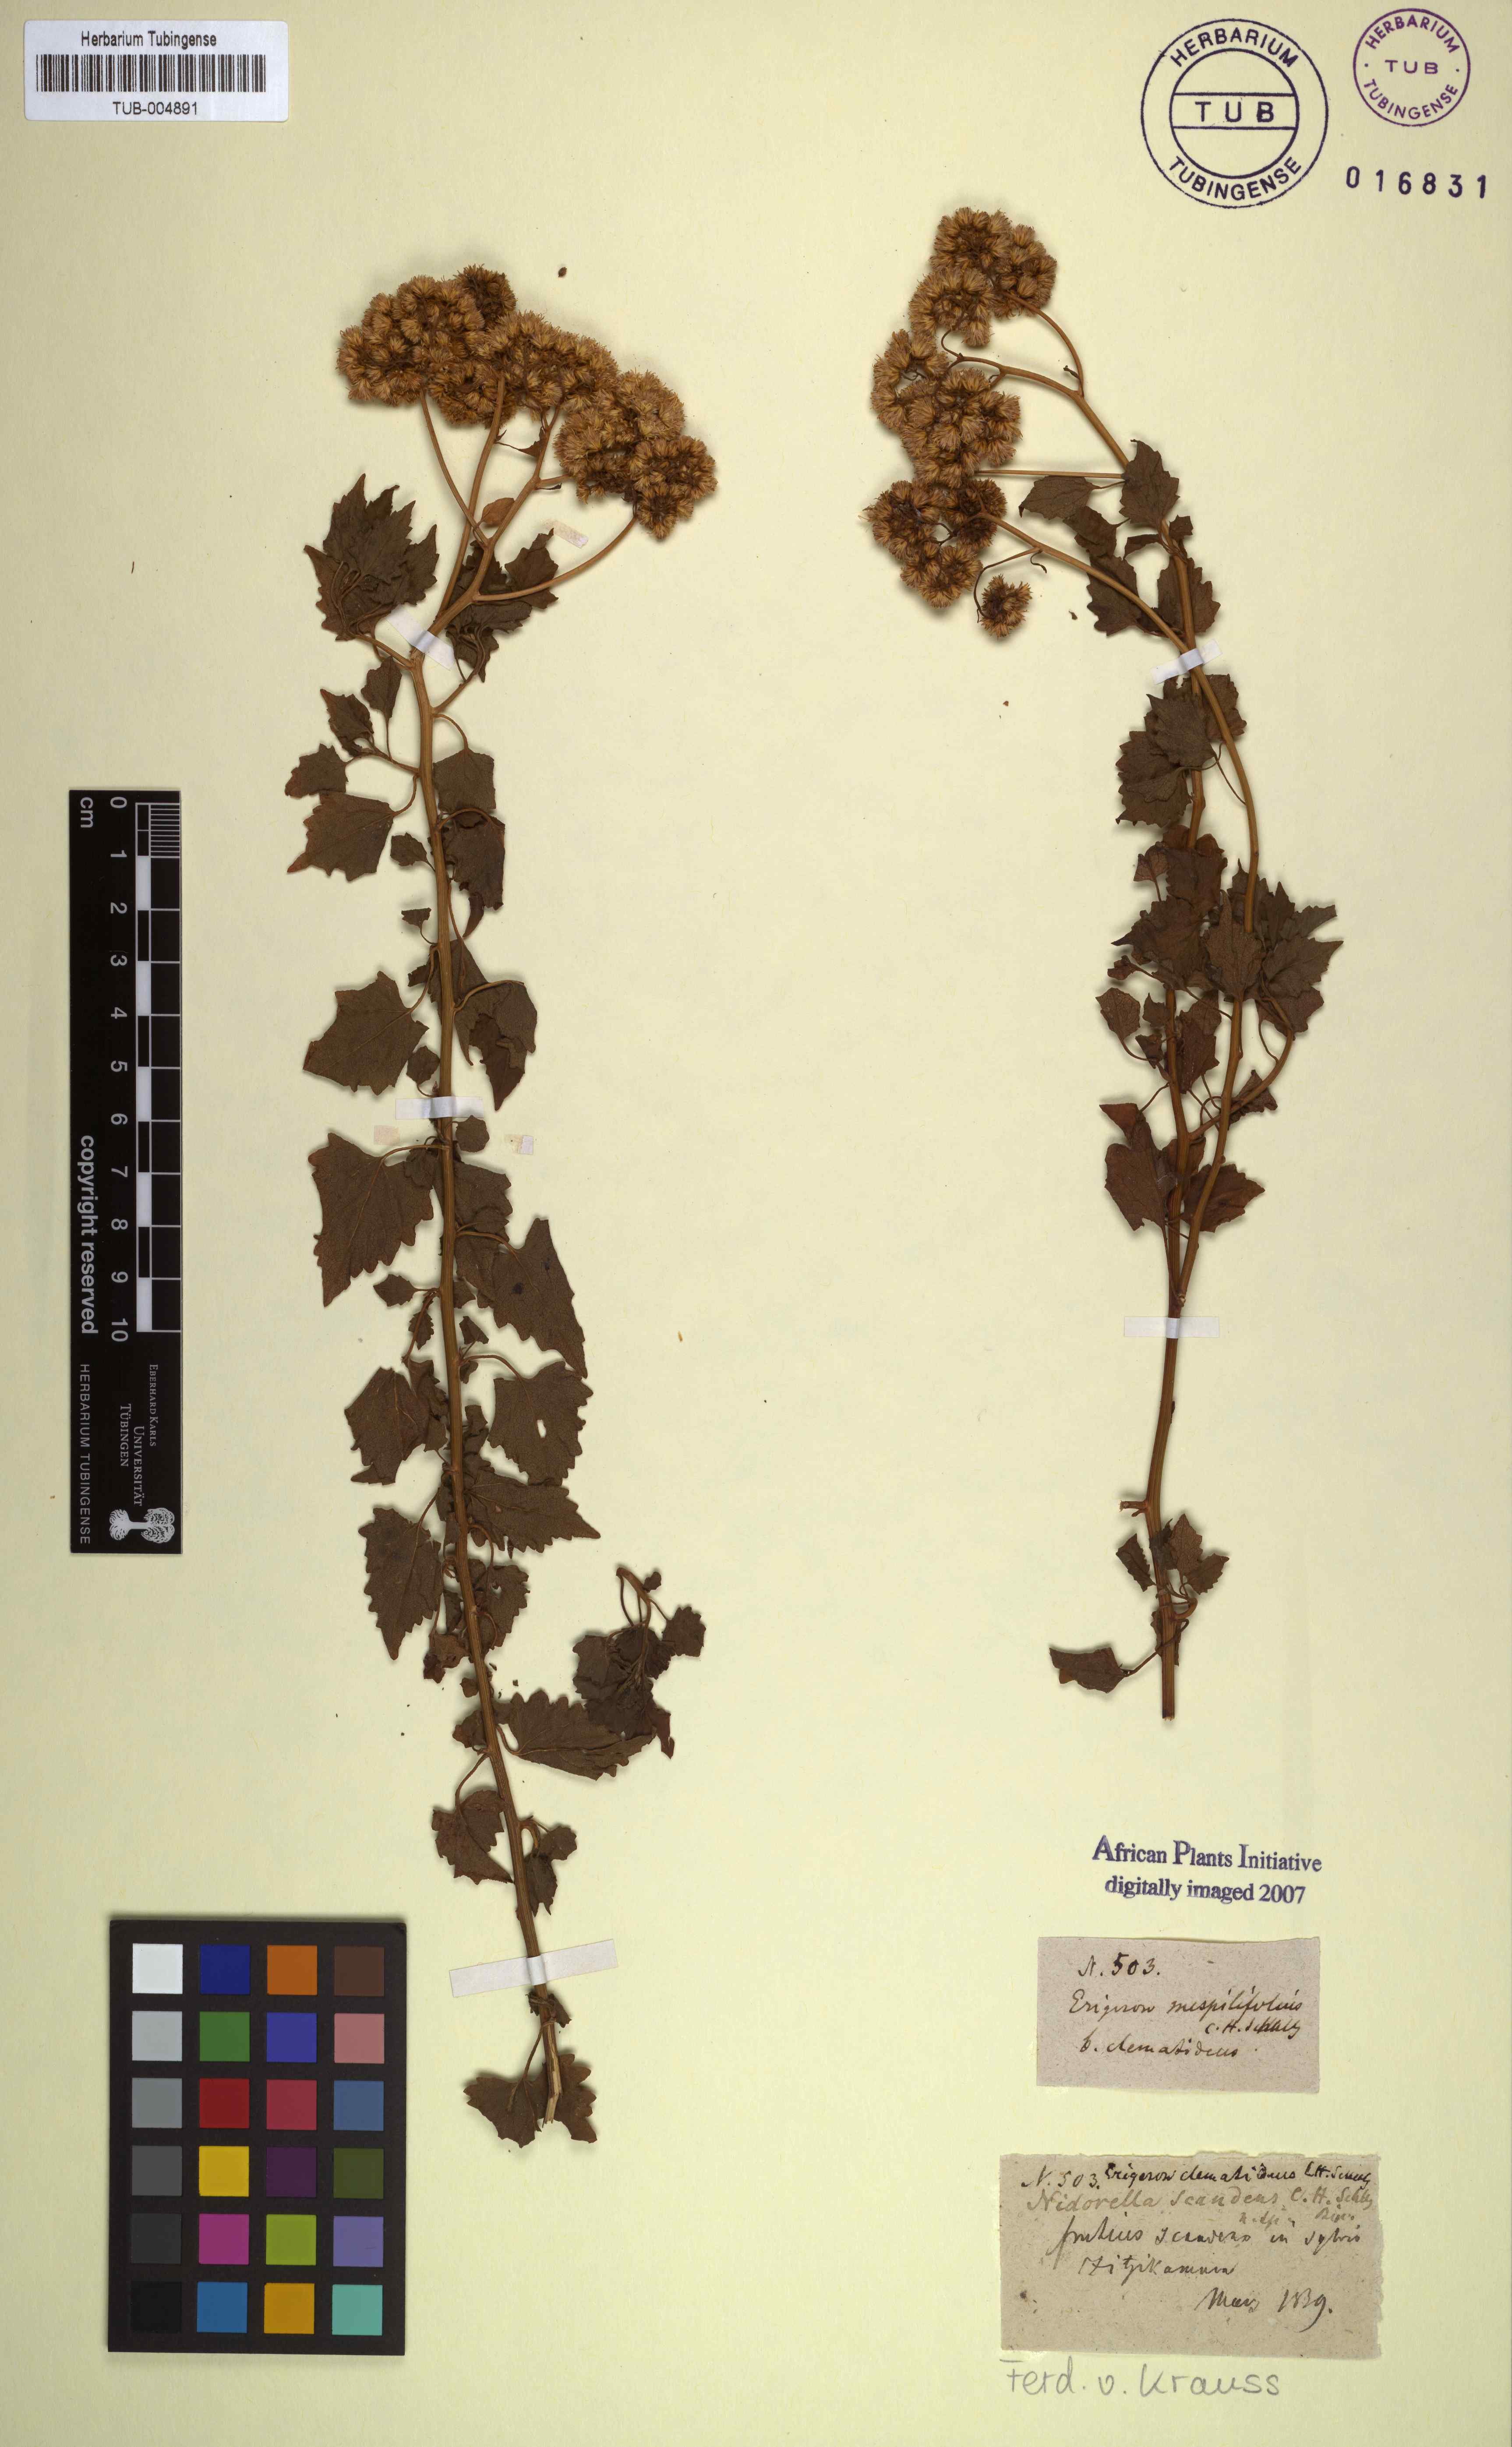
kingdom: Plantae
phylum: Tracheophyta
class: Magnoliopsida
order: Asterales
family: Asteraceae
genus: Microglossa
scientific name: Microglossa mespilifolia
